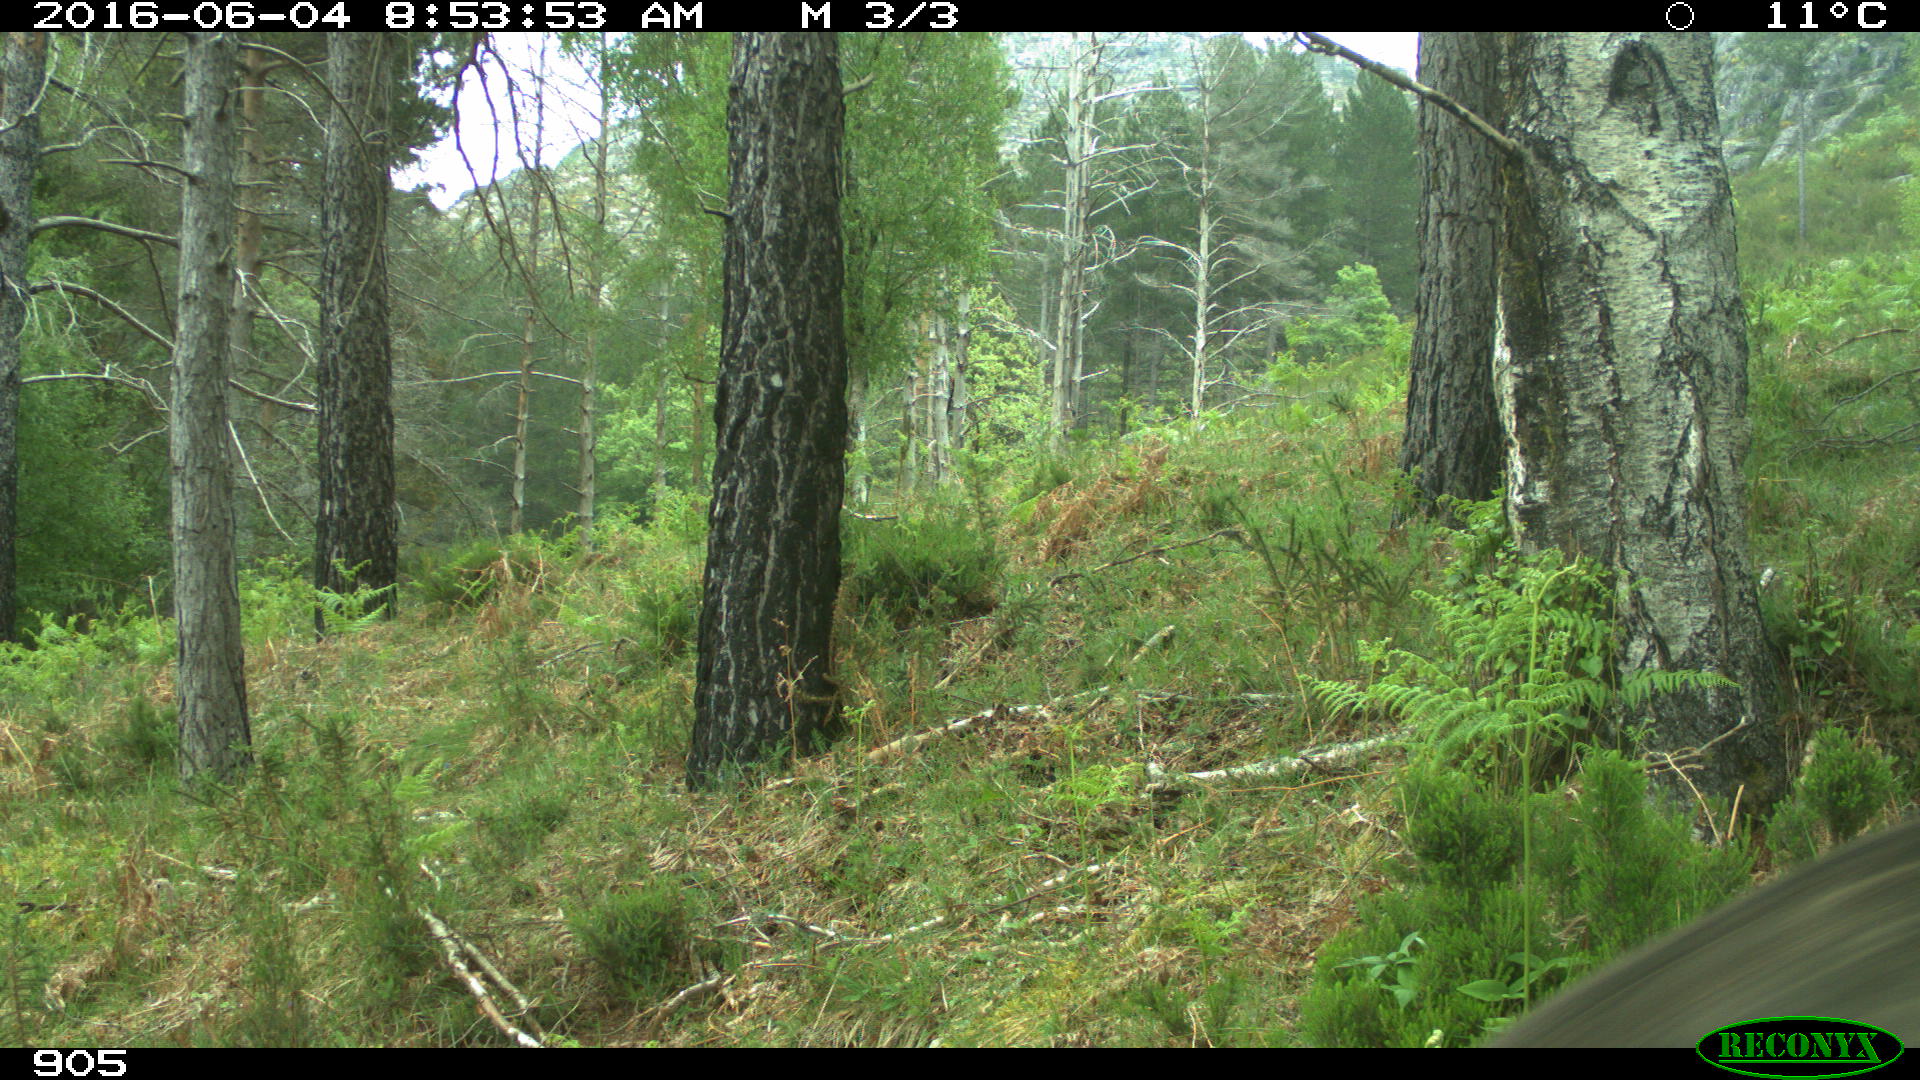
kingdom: Animalia
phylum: Chordata
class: Mammalia
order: Carnivora
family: Canidae
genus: Canis
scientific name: Canis lupus
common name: Gray wolf
